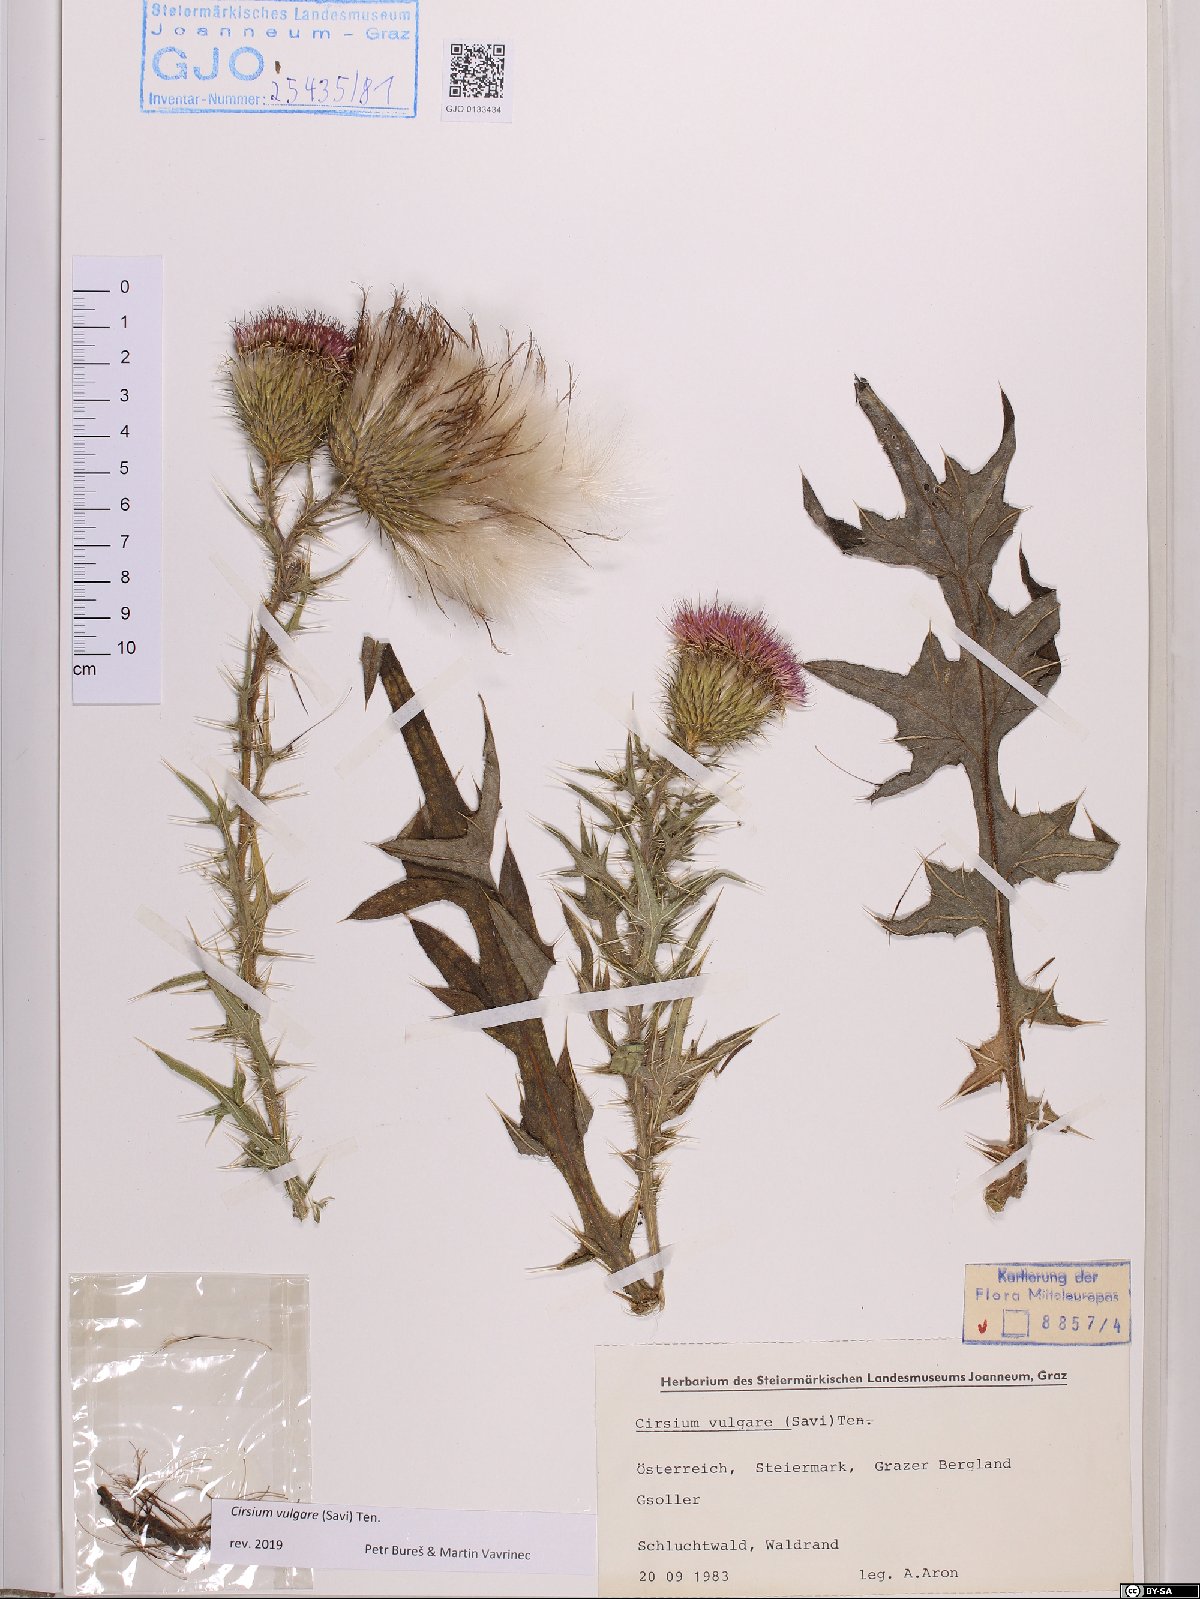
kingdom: Plantae
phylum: Tracheophyta
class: Magnoliopsida
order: Asterales
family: Asteraceae
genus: Cirsium
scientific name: Cirsium vulgare
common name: Bull thistle
